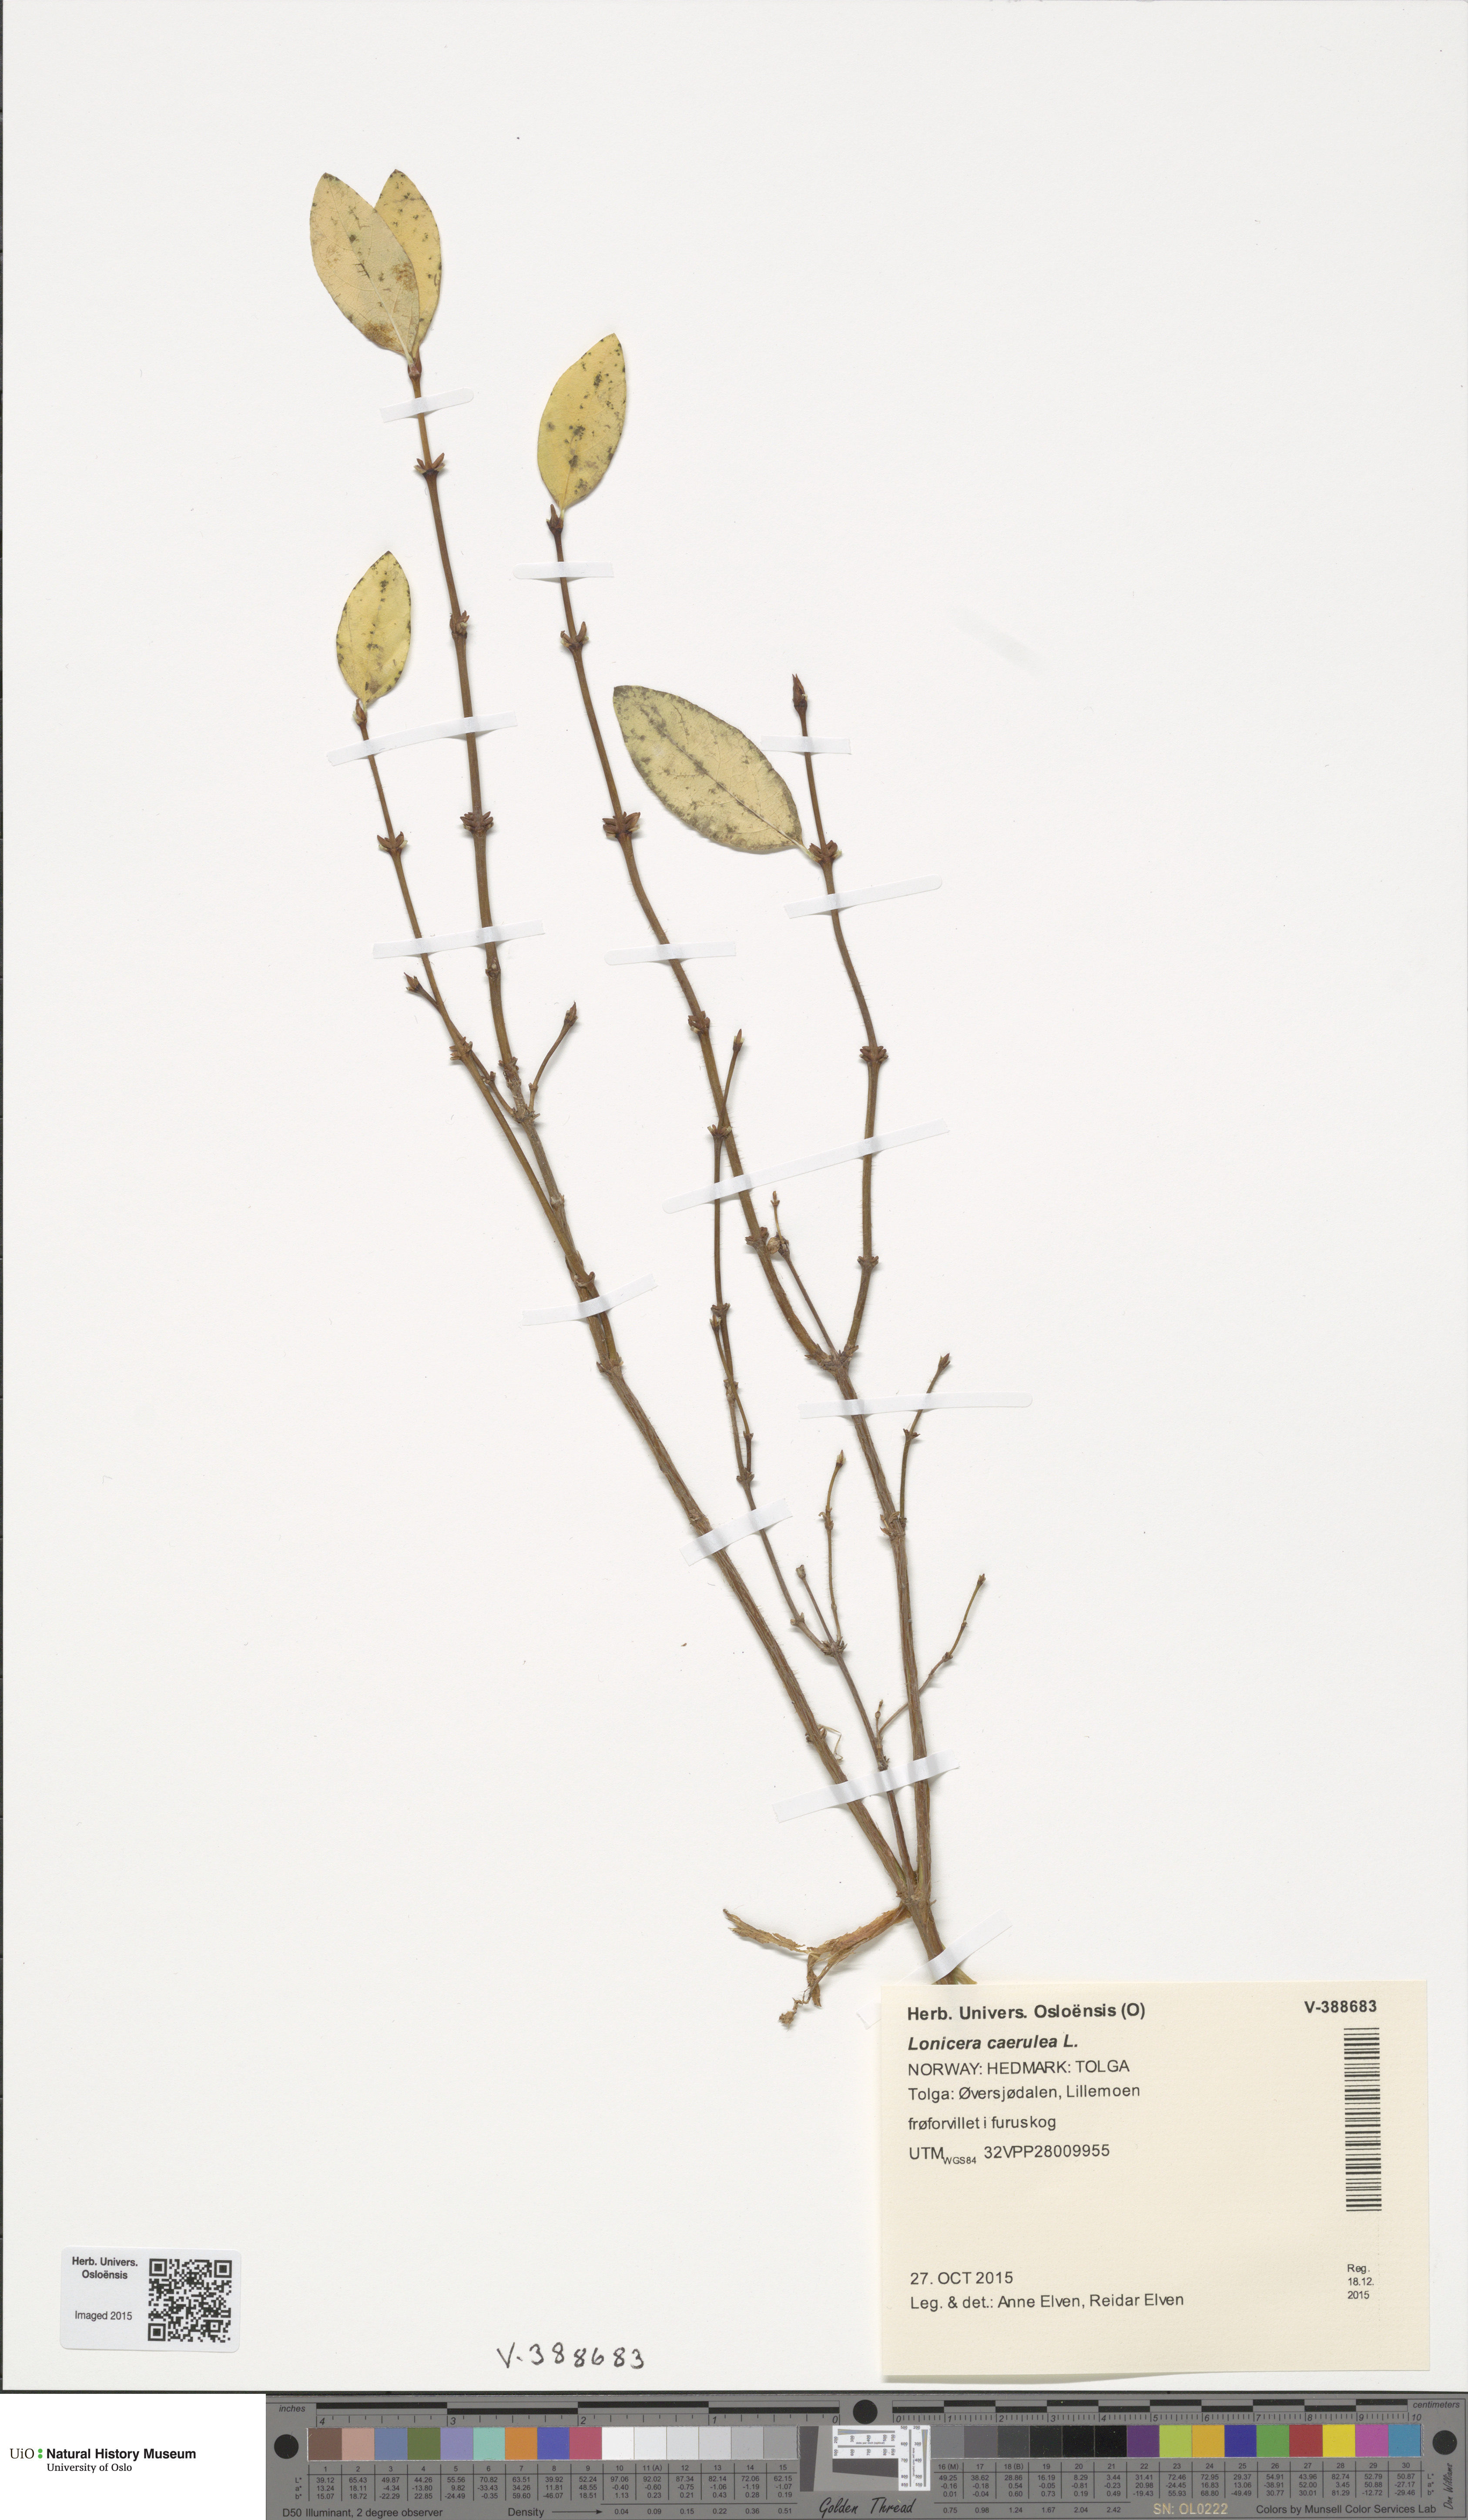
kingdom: Plantae
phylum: Tracheophyta
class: Magnoliopsida
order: Dipsacales
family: Caprifoliaceae
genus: Lonicera
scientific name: Lonicera caerulea
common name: Blue honeysuckle
